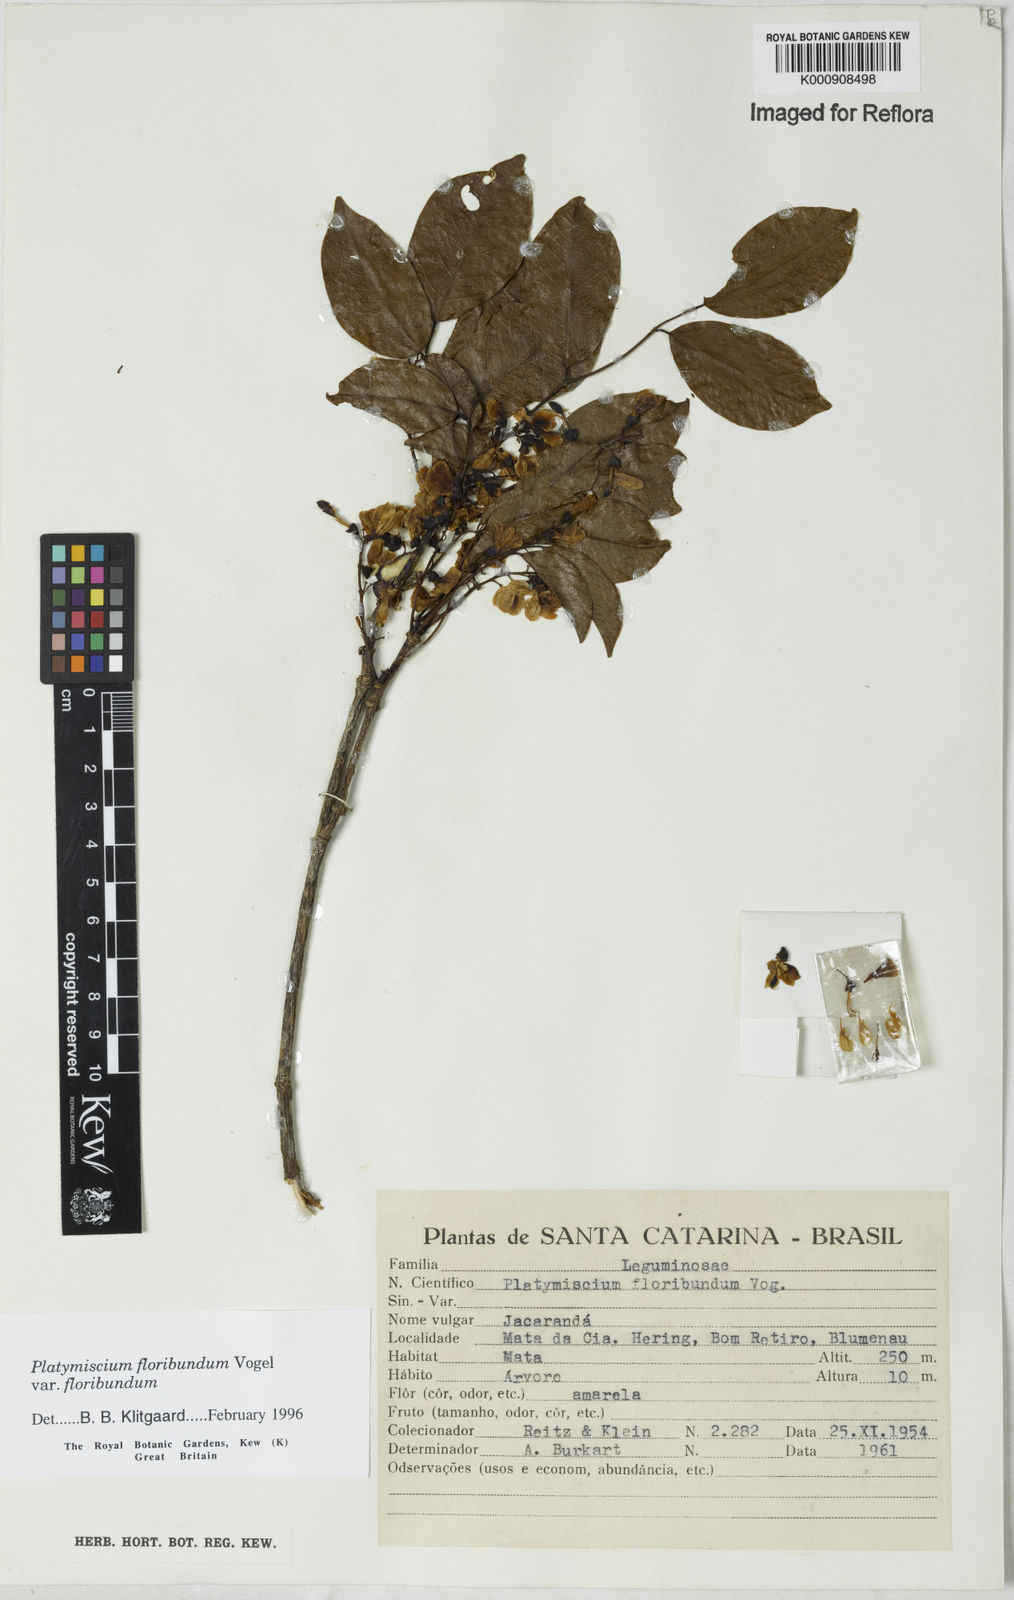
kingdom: Plantae
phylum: Tracheophyta
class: Magnoliopsida
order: Fabales
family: Fabaceae
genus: Platymiscium
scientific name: Platymiscium floribundum
